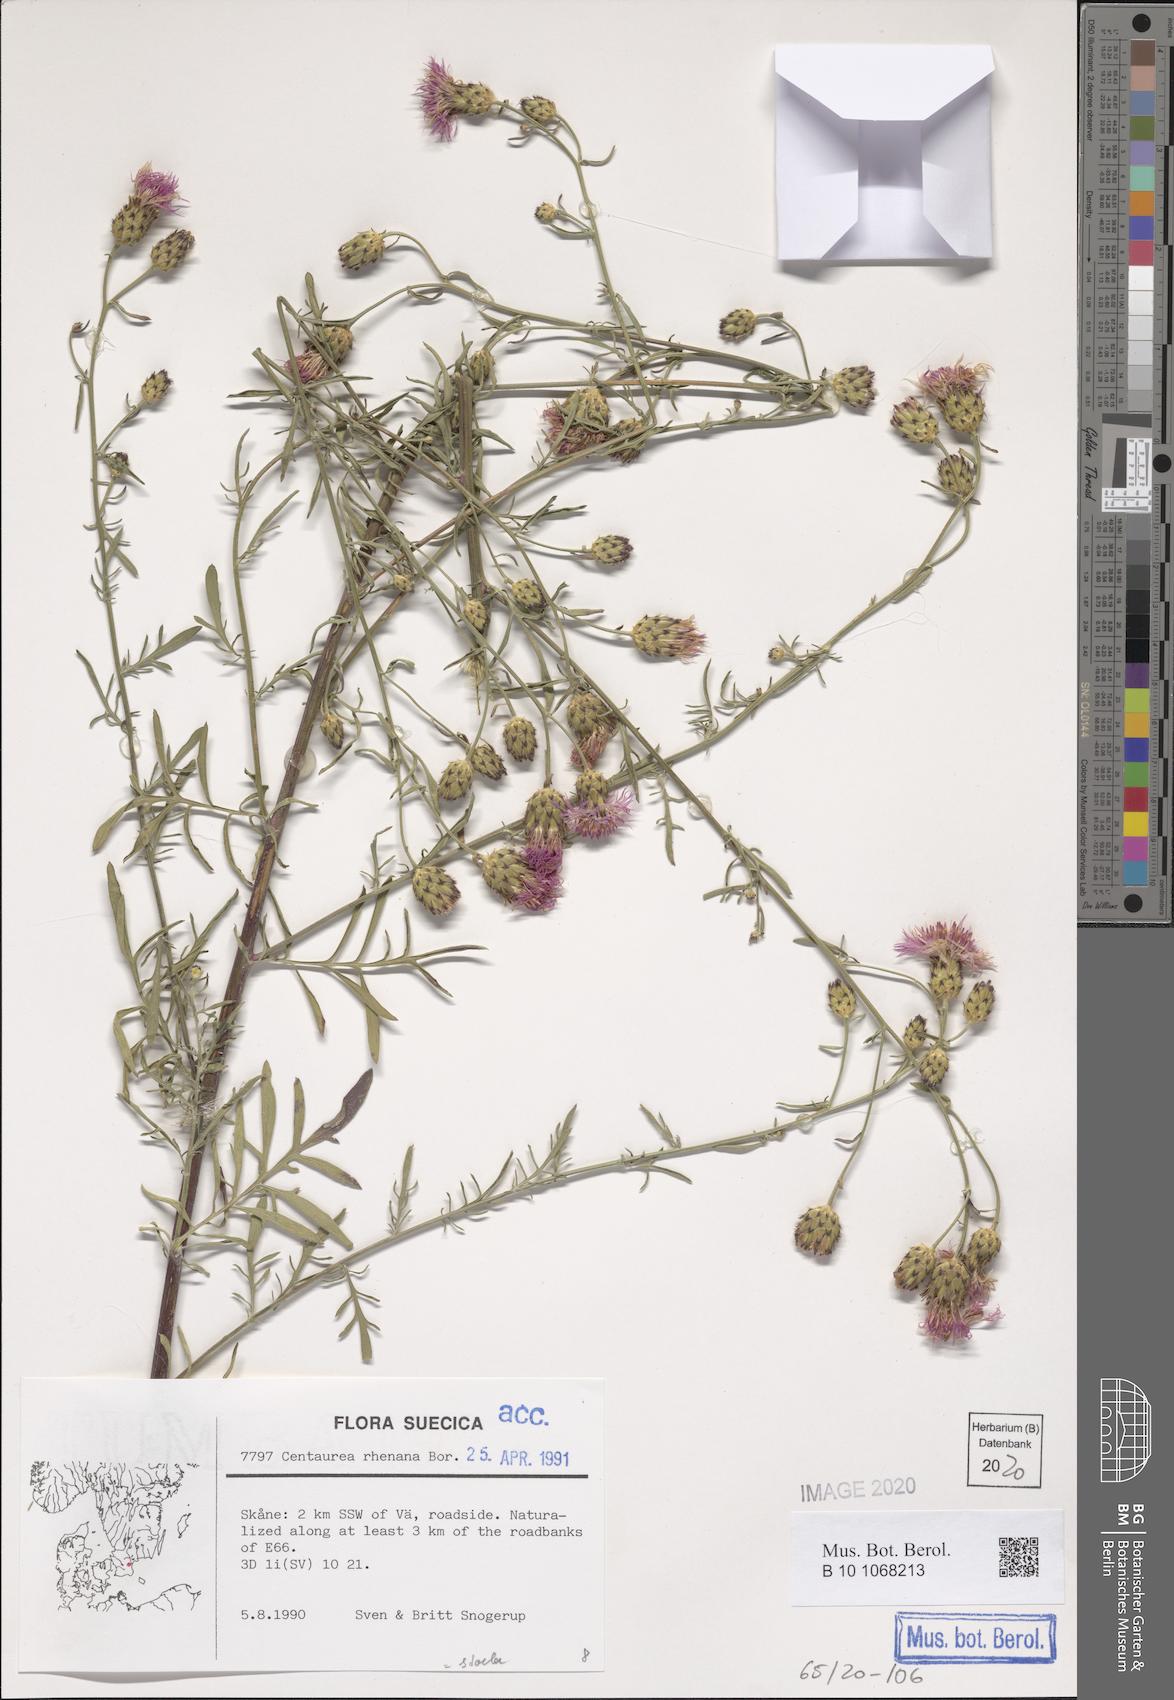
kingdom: Plantae
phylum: Tracheophyta
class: Magnoliopsida
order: Asterales
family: Asteraceae
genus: Centaurea
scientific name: Centaurea stoebe
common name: Spotted knapweed
